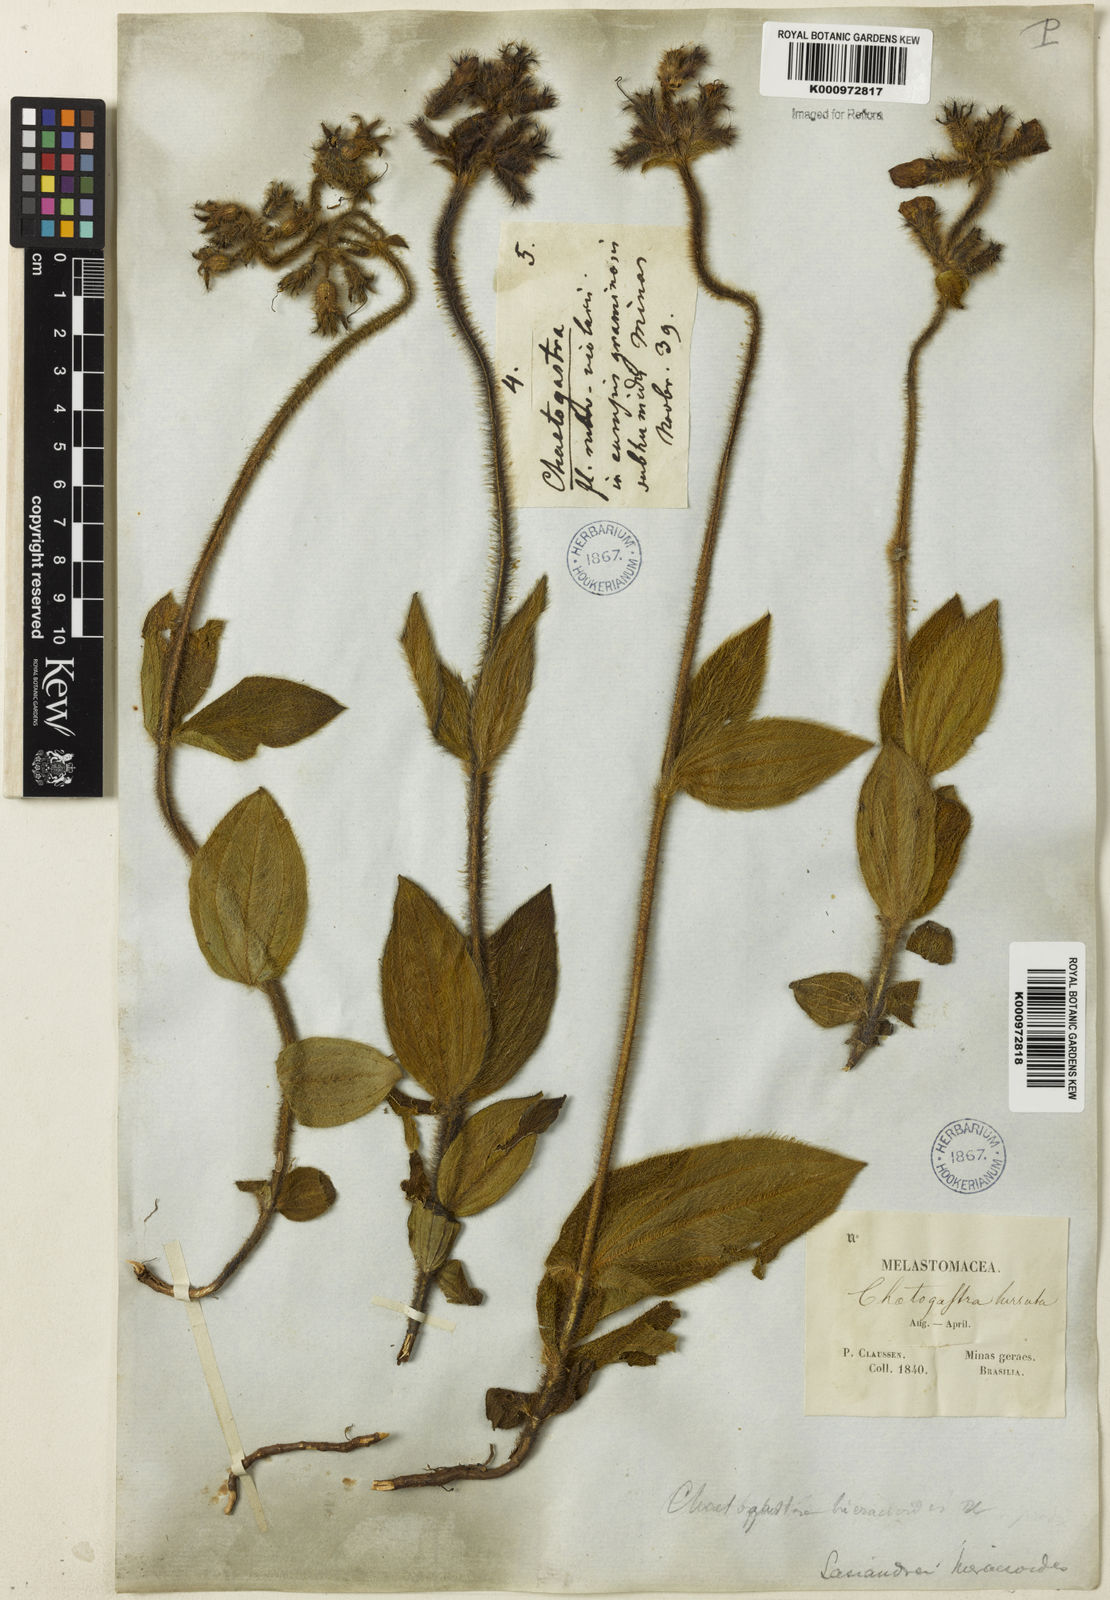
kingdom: Plantae
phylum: Tracheophyta
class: Magnoliopsida
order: Myrtales
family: Melastomataceae
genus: Chaetogastra
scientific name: Chaetogastra hieracioides
